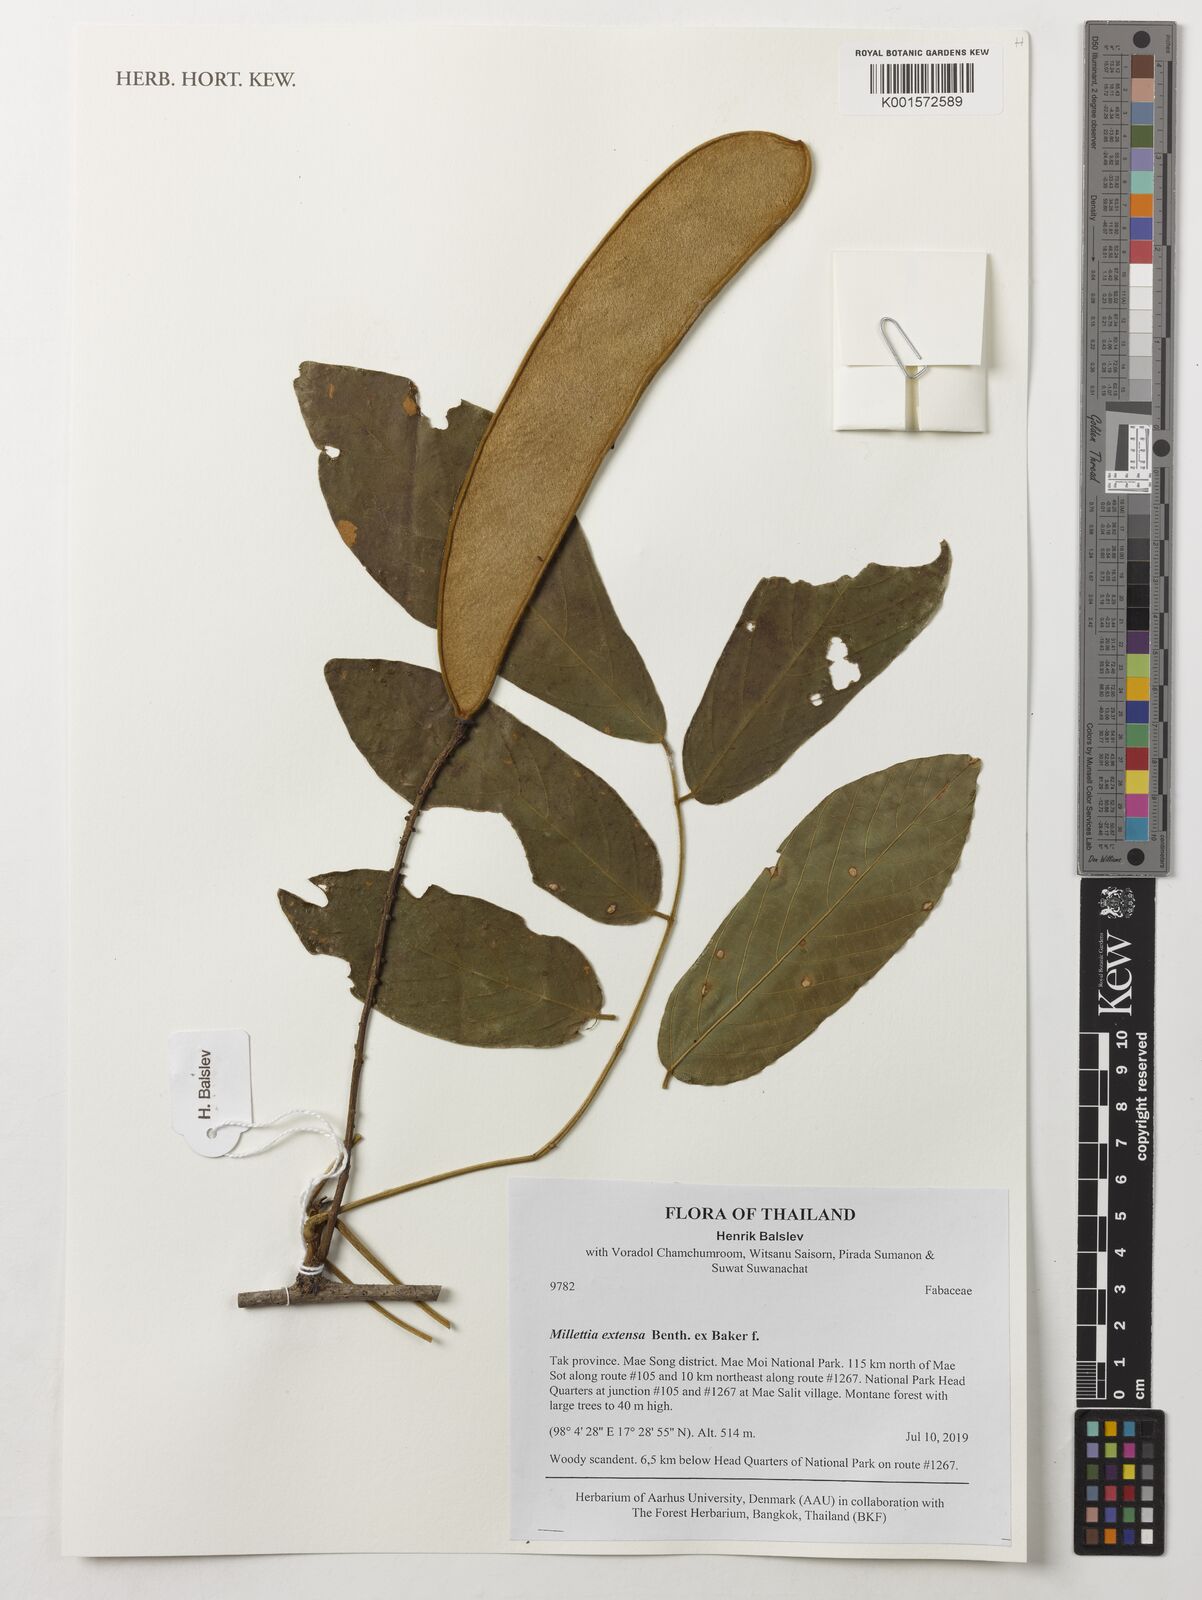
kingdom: Plantae
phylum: Tracheophyta
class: Magnoliopsida
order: Fabales
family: Fabaceae
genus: Millettia
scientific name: Millettia extensa
